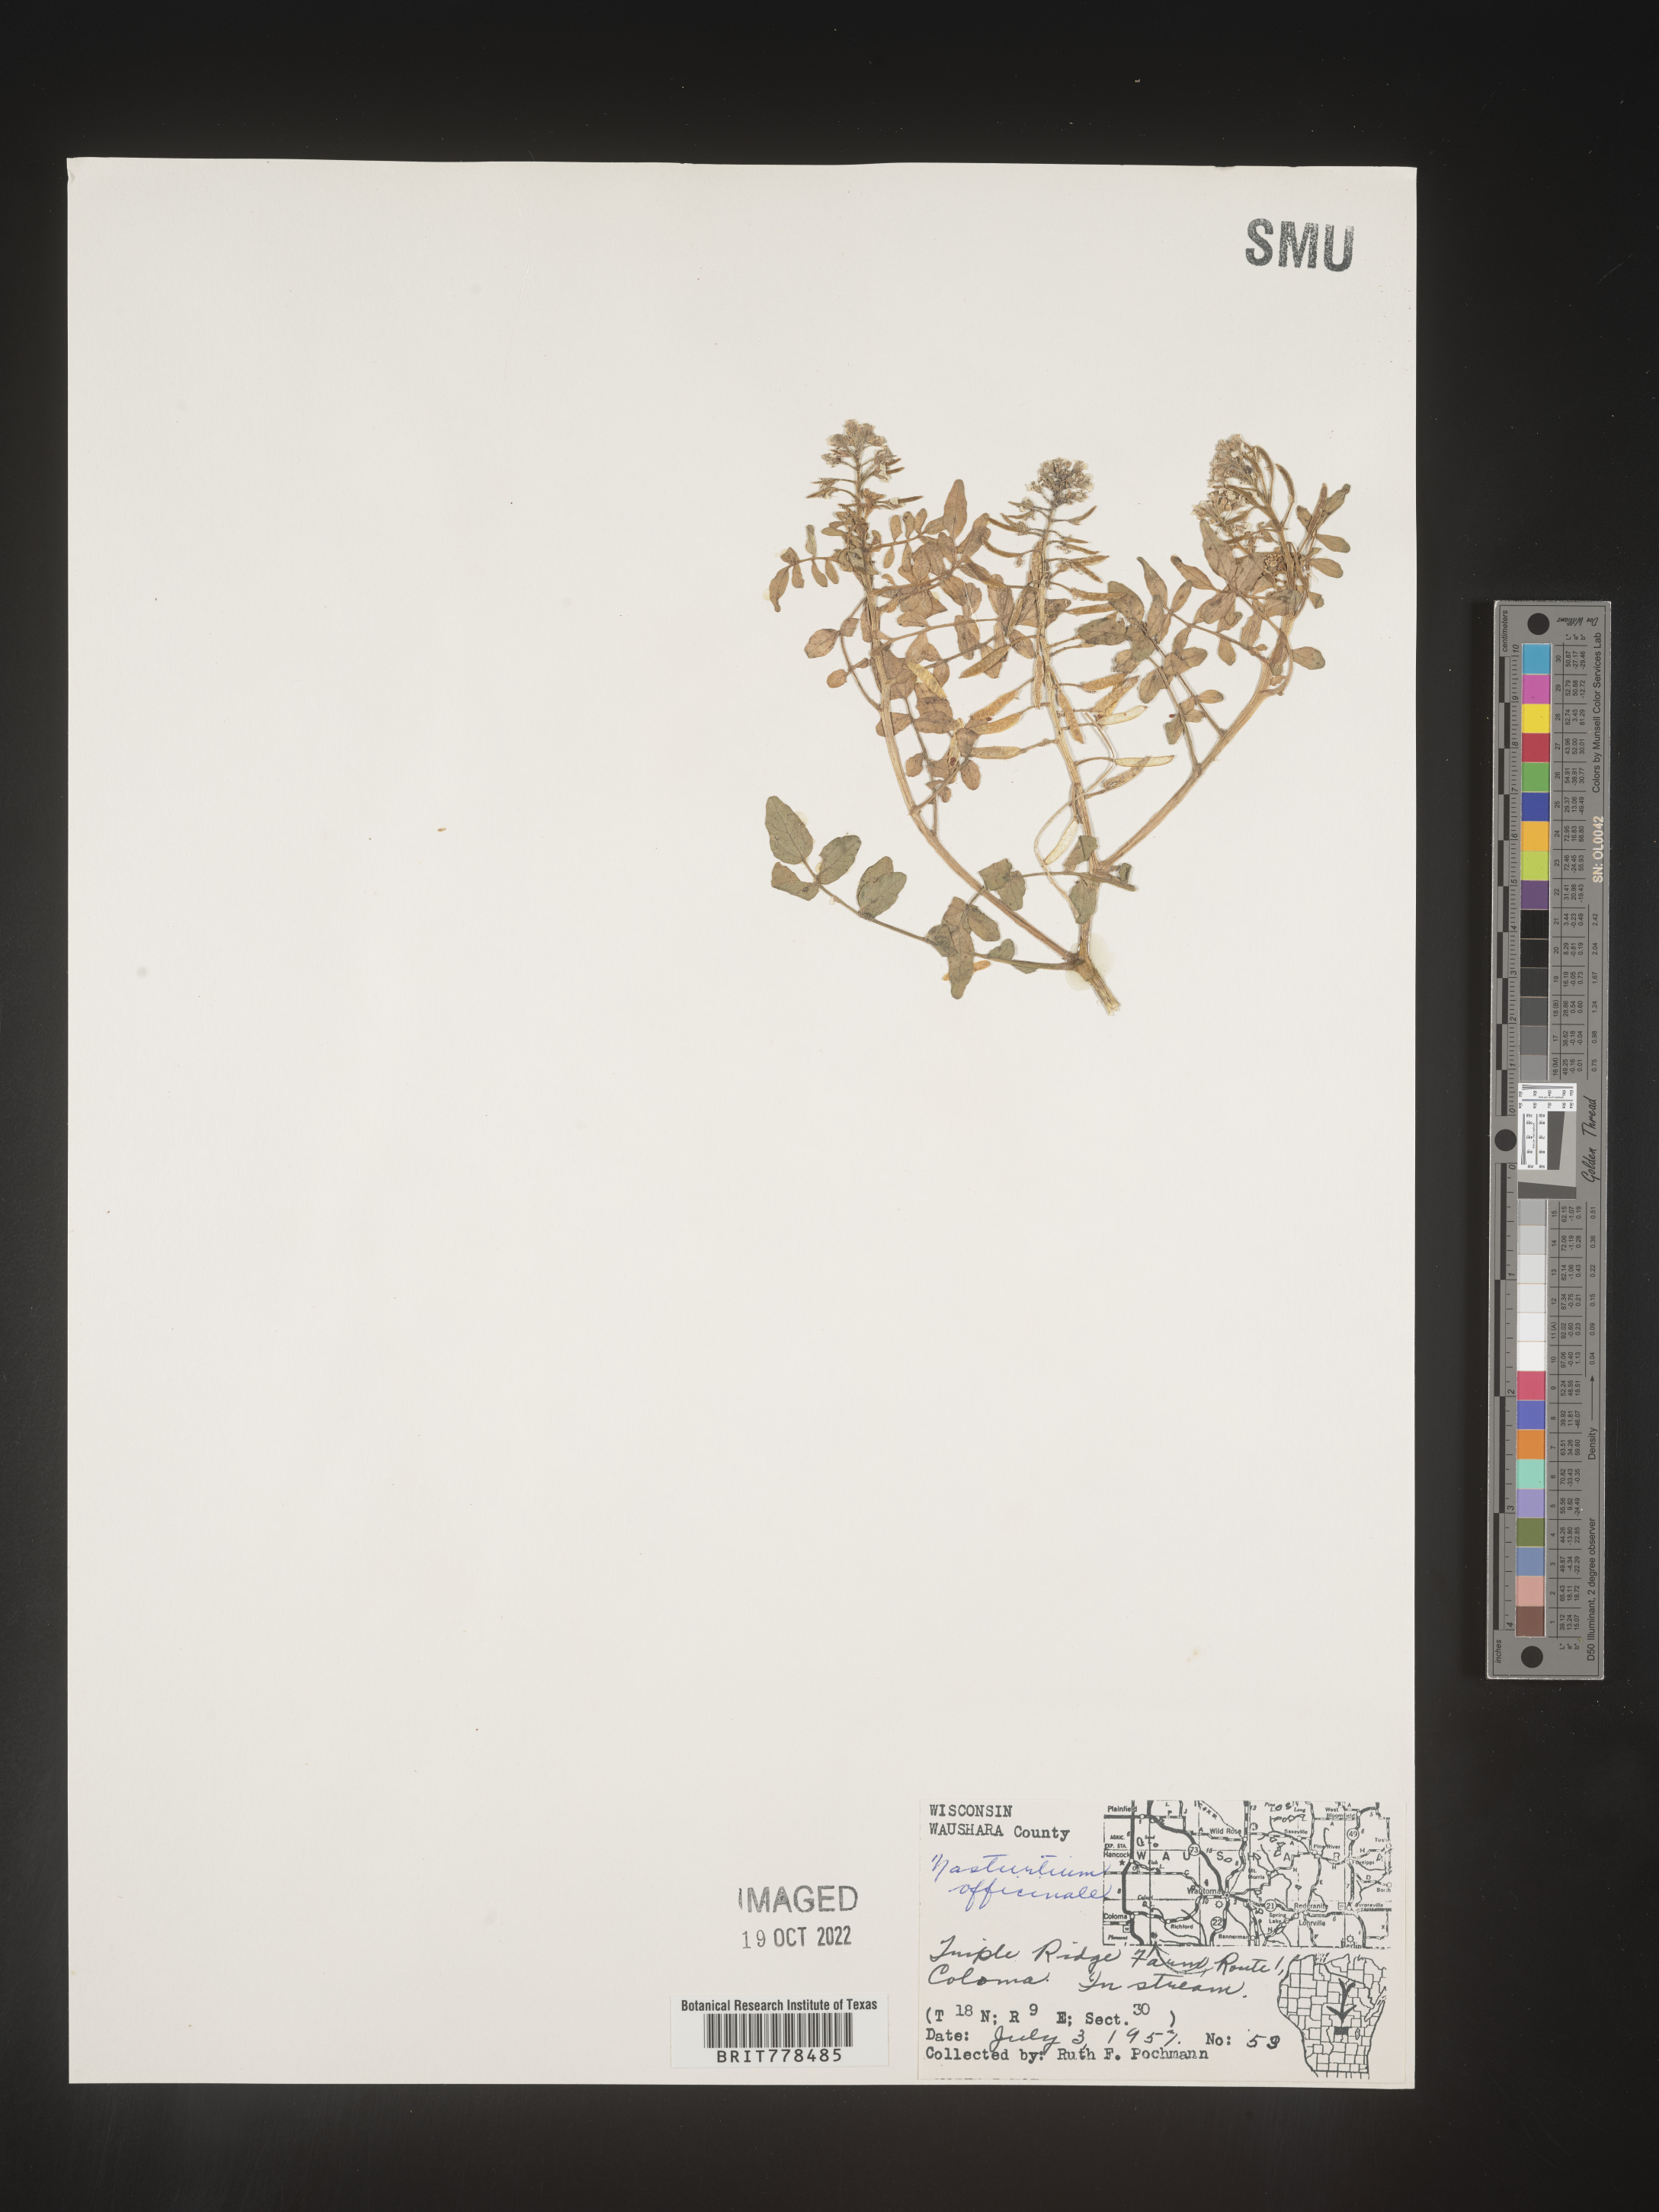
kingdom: Plantae
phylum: Tracheophyta
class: Magnoliopsida
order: Brassicales
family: Brassicaceae
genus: Nasturtium
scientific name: Nasturtium officinale
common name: Watercress
